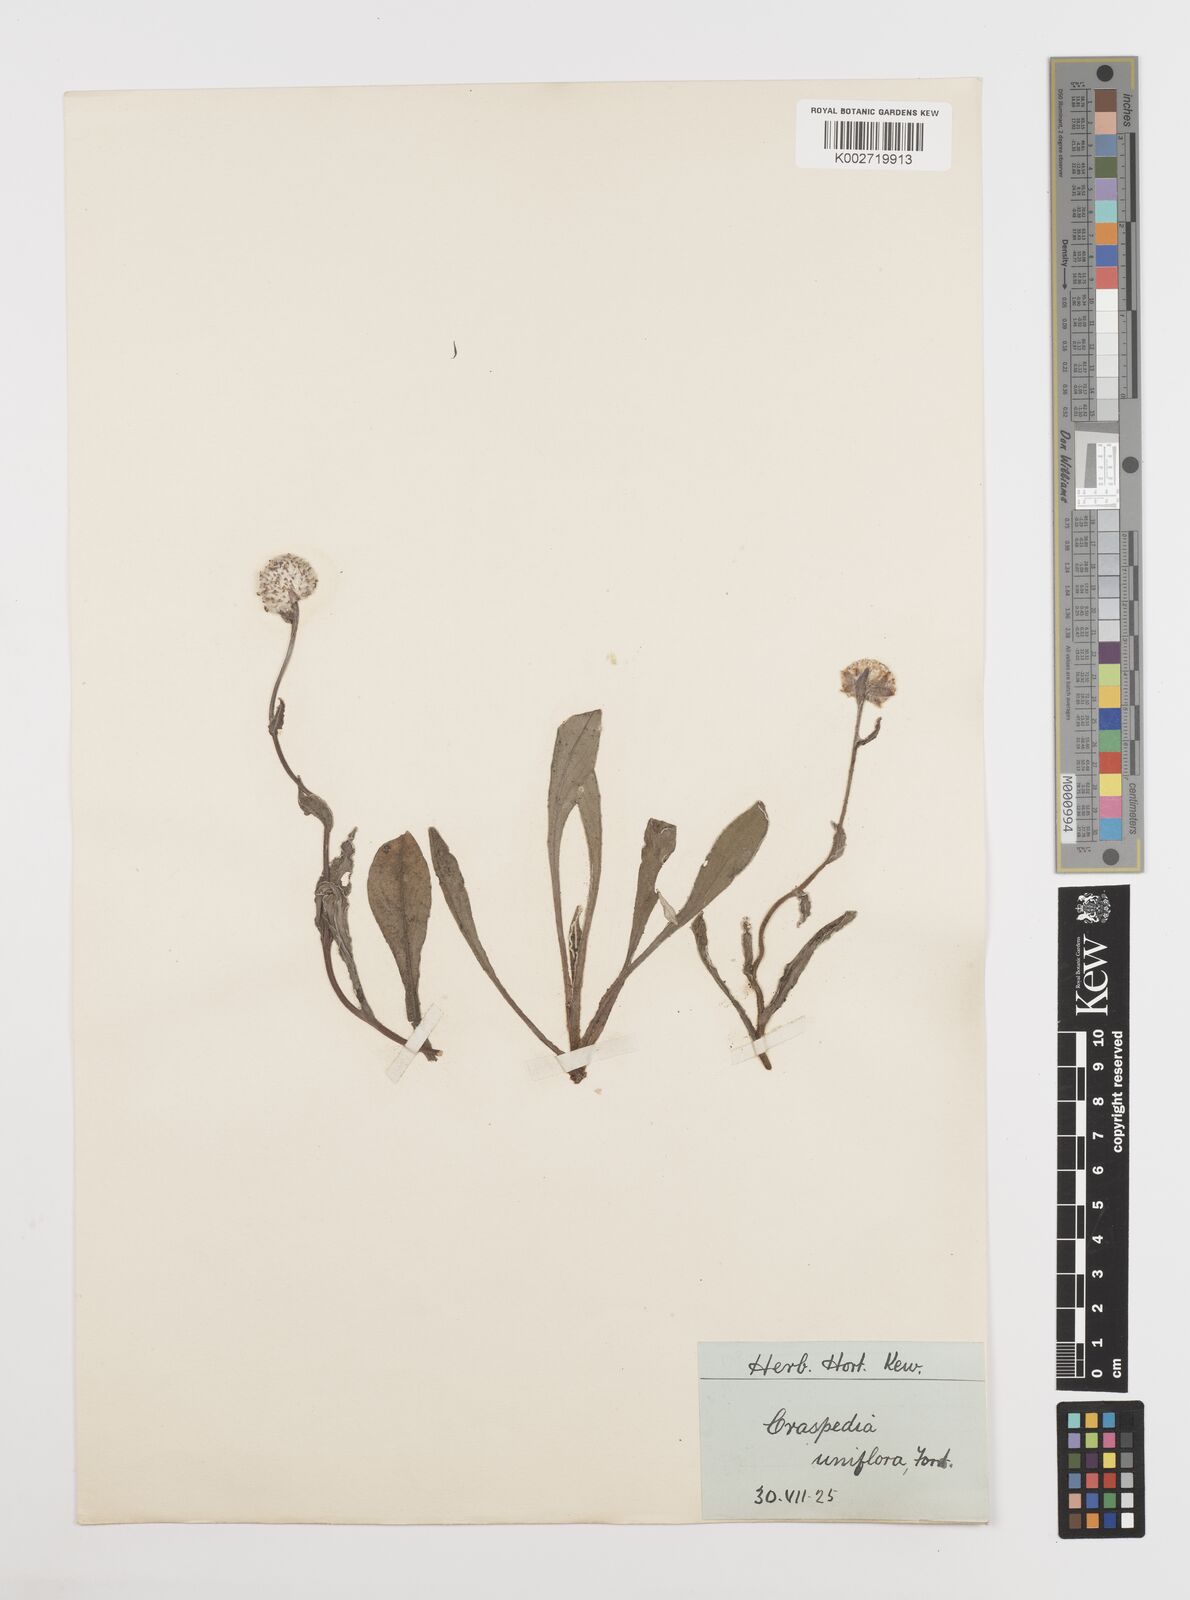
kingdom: Plantae
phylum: Tracheophyta
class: Magnoliopsida
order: Asterales
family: Asteraceae
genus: Craspedia
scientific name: Craspedia uniflora
